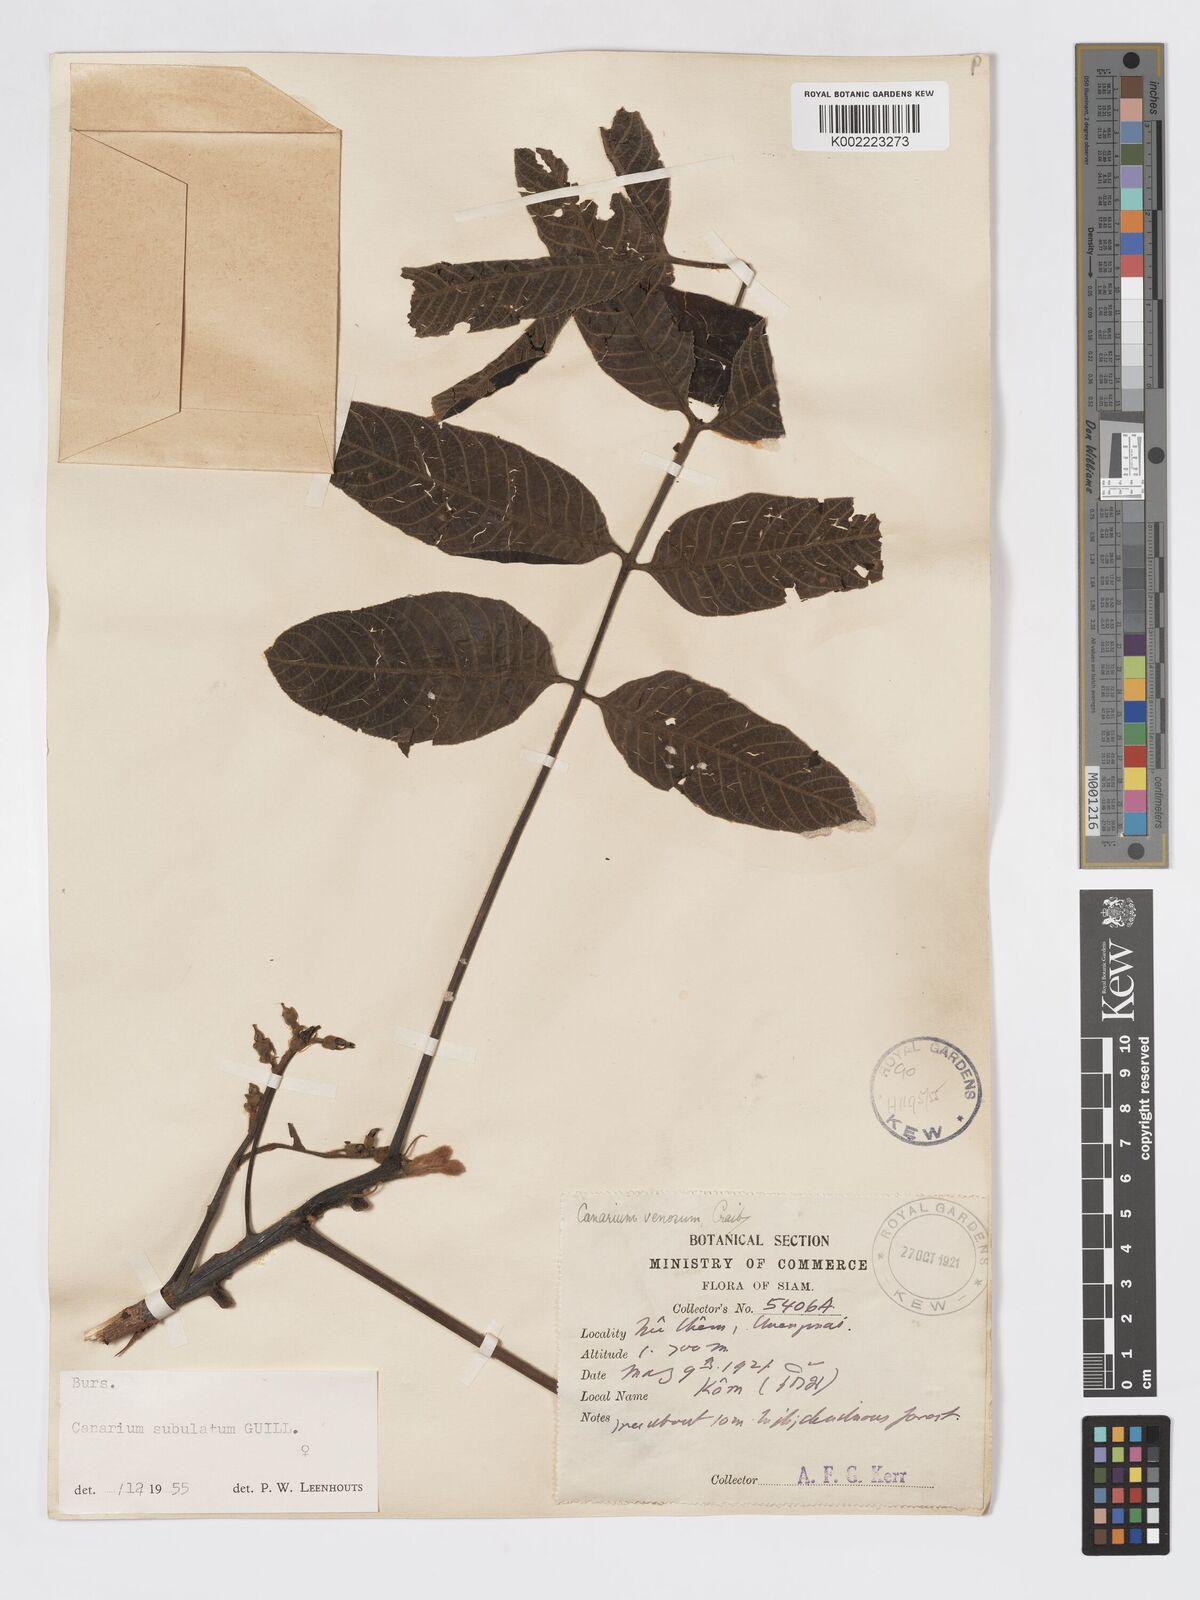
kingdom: Plantae
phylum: Tracheophyta
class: Magnoliopsida
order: Sapindales
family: Burseraceae
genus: Canarium
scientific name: Canarium subulatum
